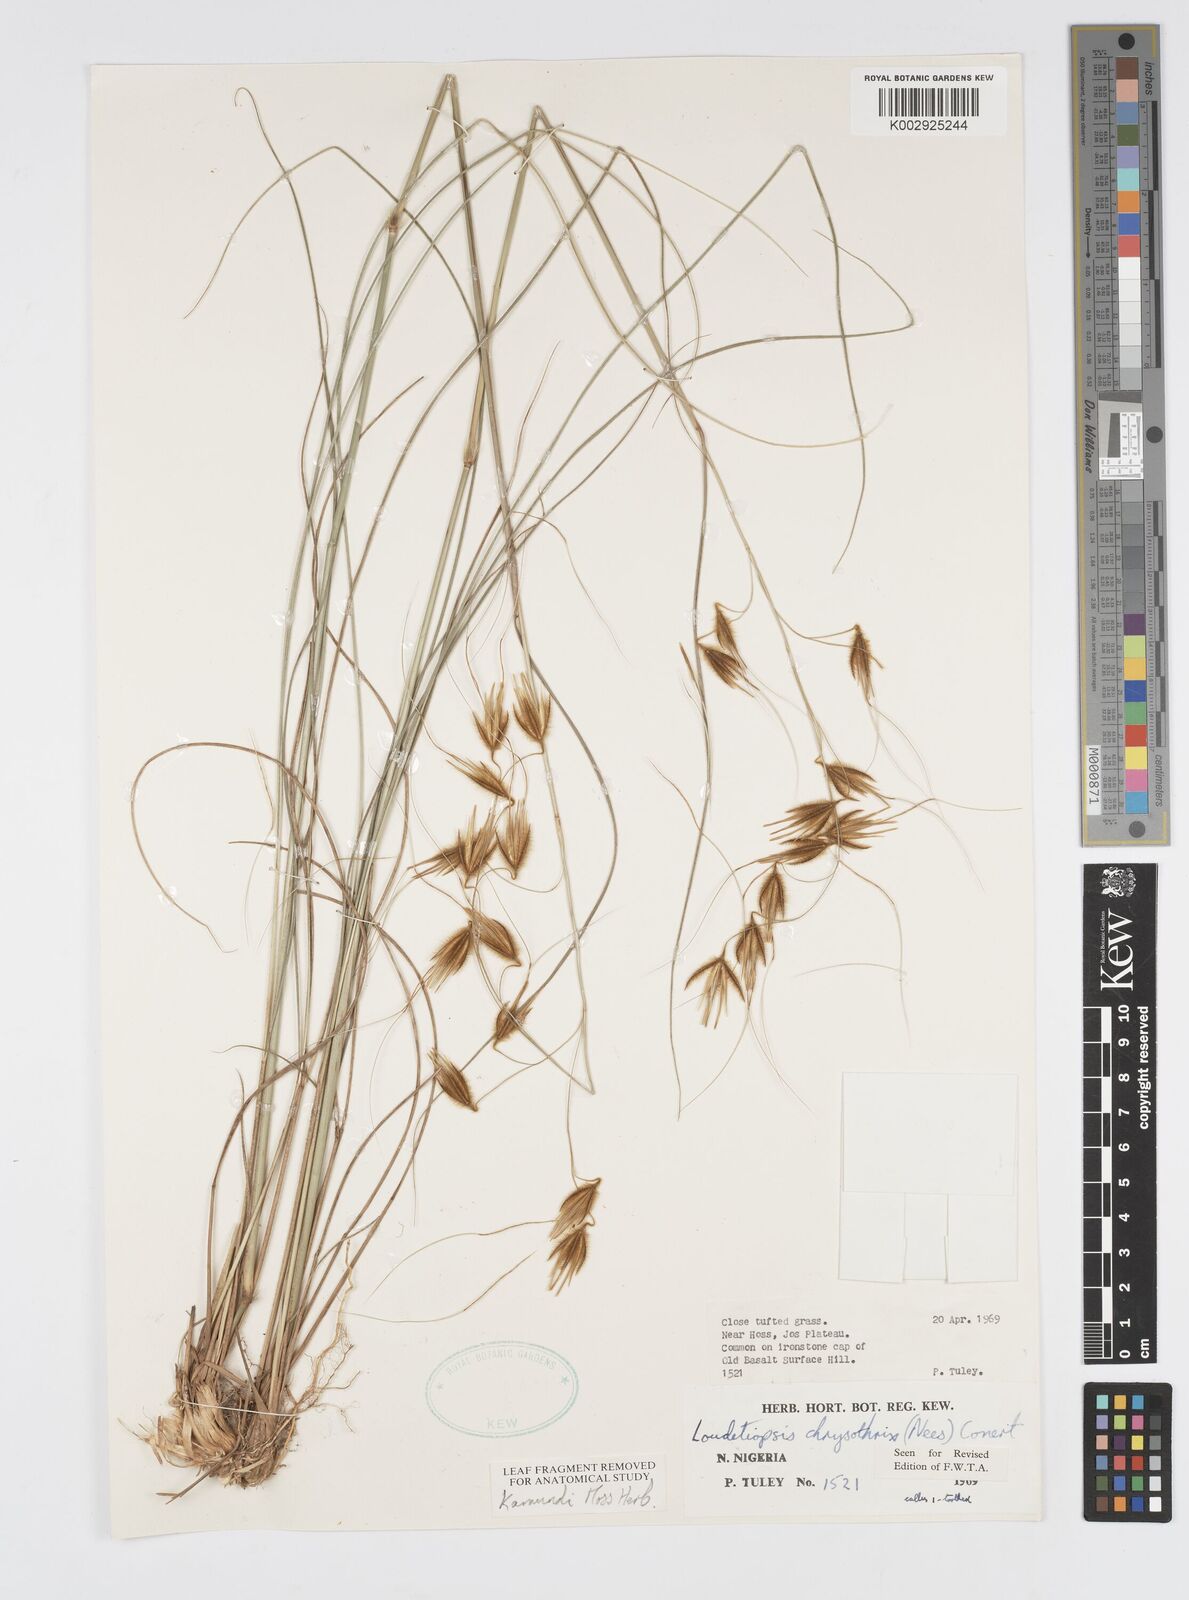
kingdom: Plantae
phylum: Tracheophyta
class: Liliopsida
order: Poales
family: Poaceae
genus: Loudetiopsis
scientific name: Loudetiopsis chrysothrix
